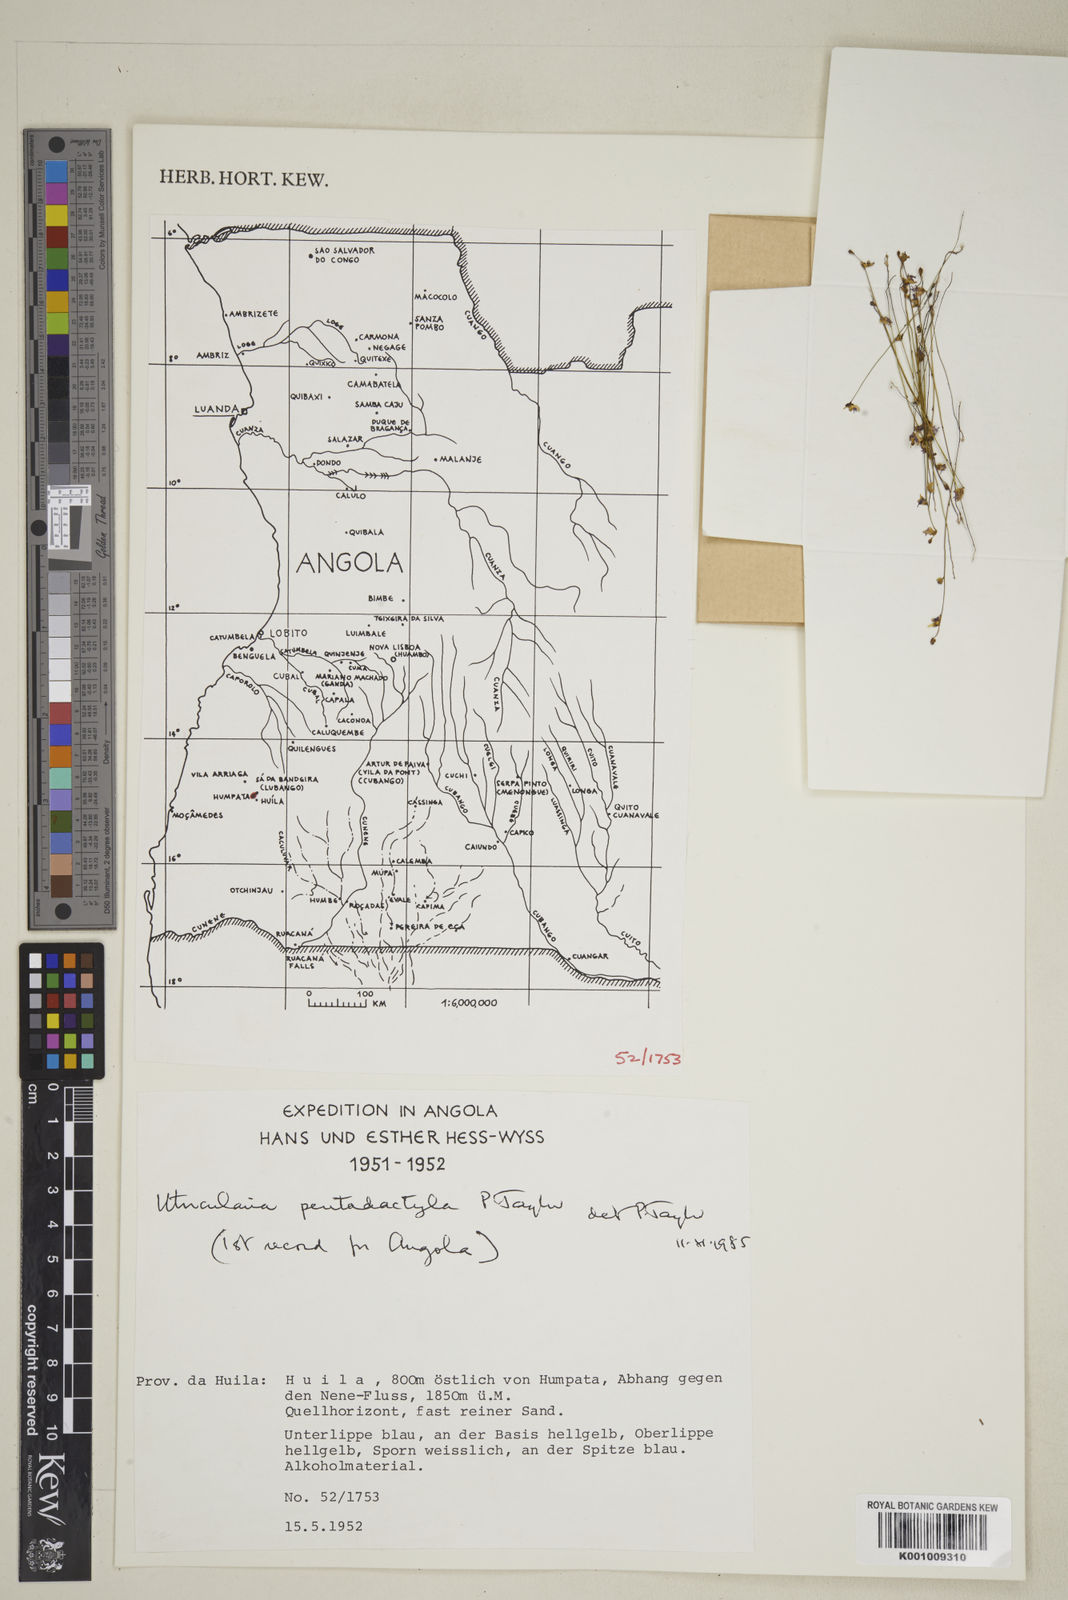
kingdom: Plantae
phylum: Tracheophyta
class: Magnoliopsida
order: Lamiales
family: Lentibulariaceae
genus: Utricularia
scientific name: Utricularia pentadactyla
